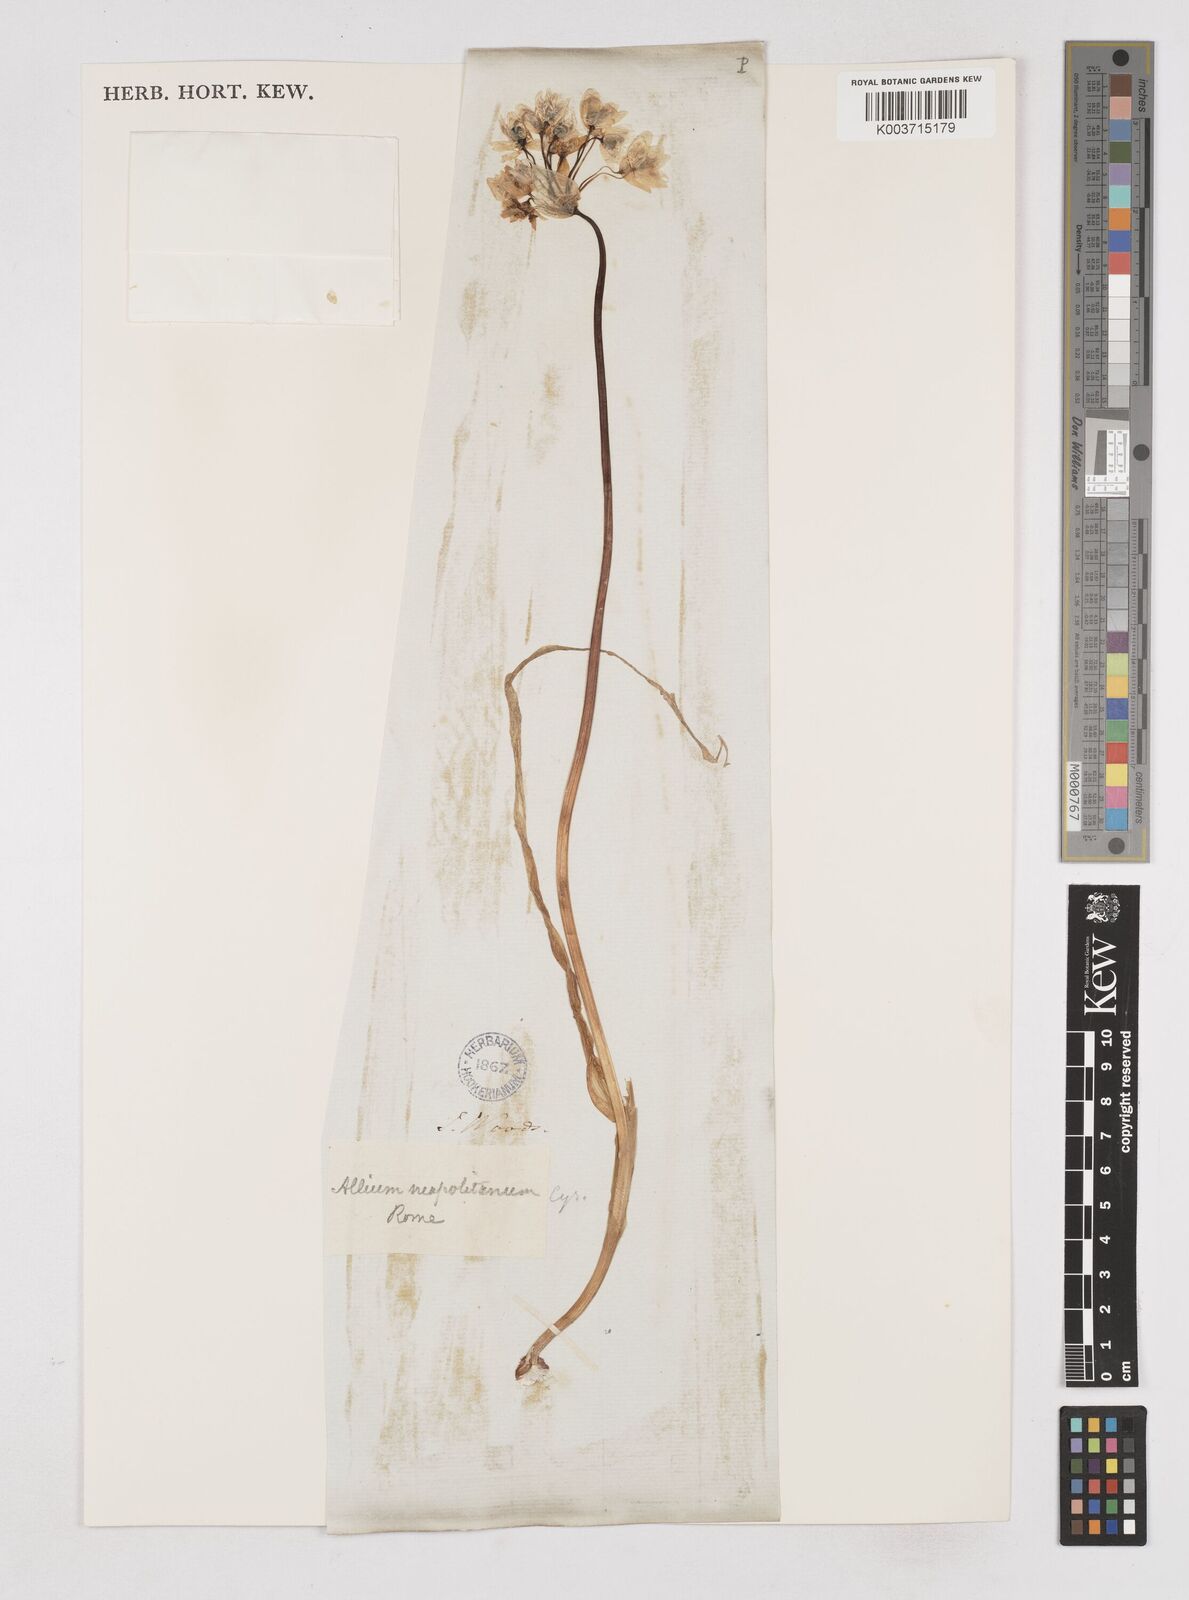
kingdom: Plantae
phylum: Tracheophyta
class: Liliopsida
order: Asparagales
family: Amaryllidaceae
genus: Allium
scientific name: Allium neapolitanum
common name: Neapolitan garlic
